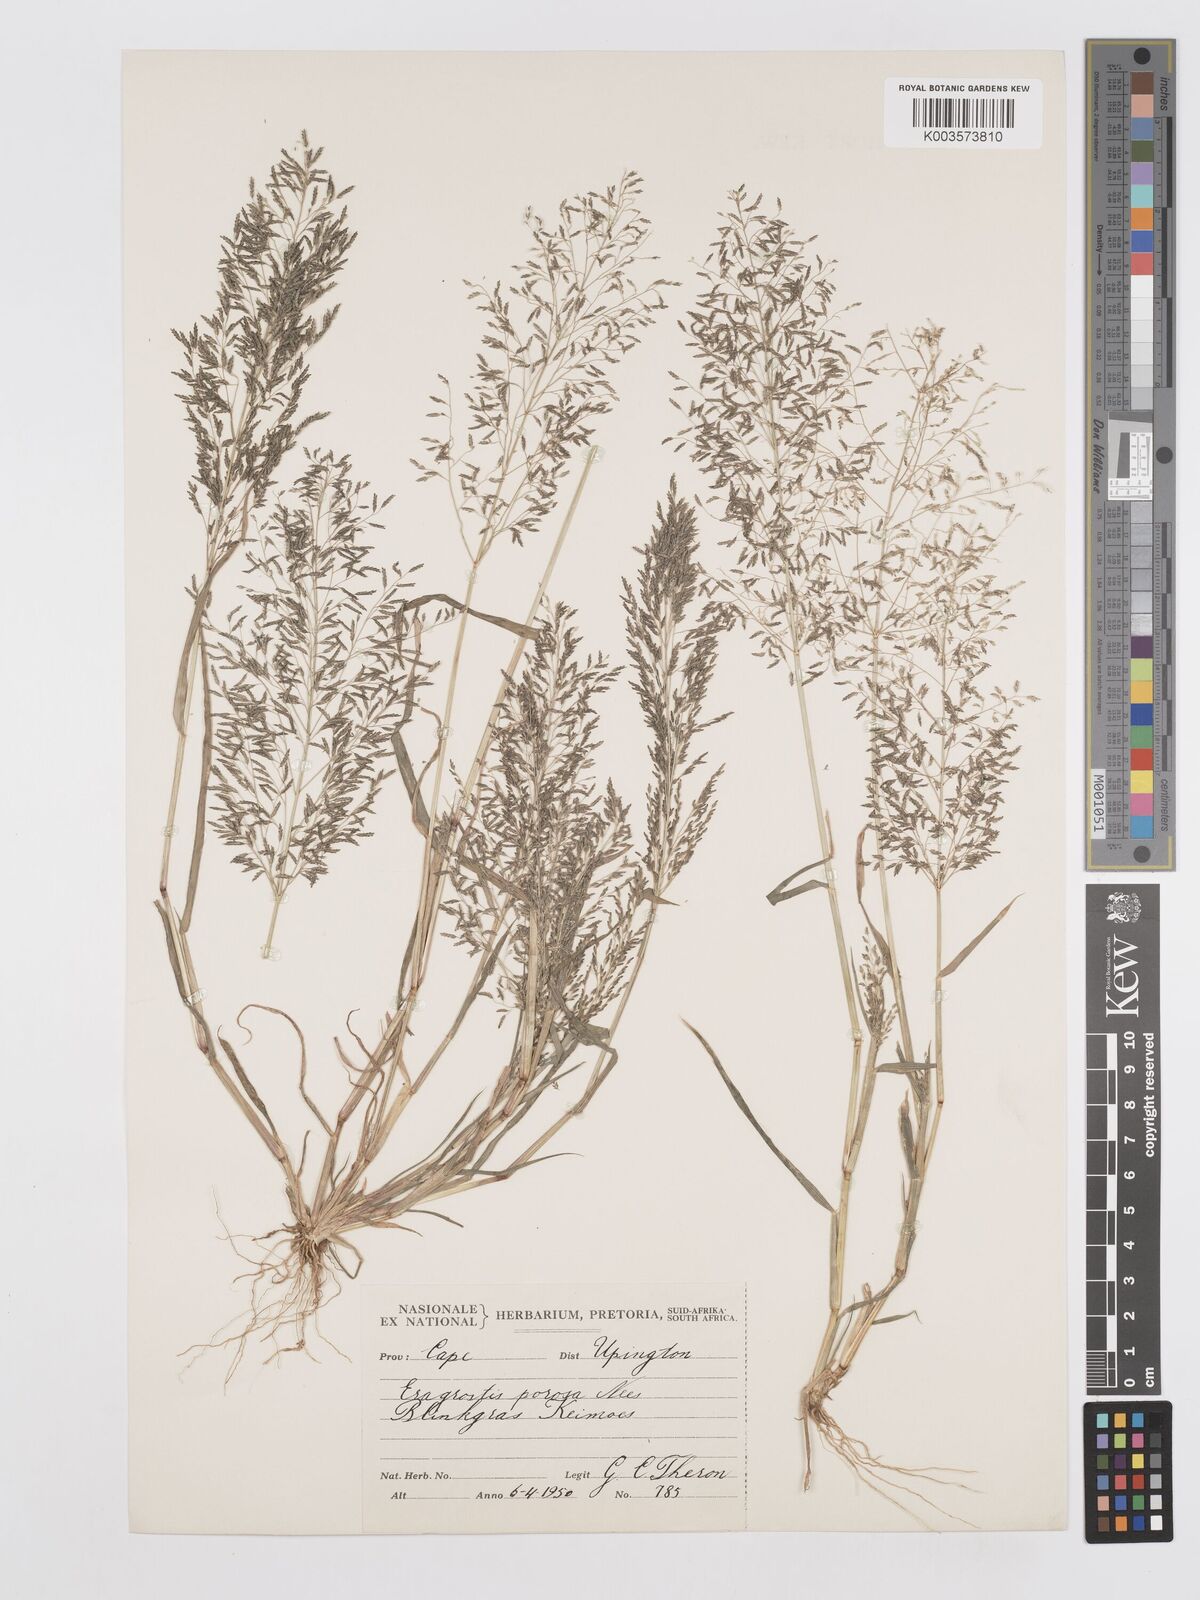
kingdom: Plantae
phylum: Tracheophyta
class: Liliopsida
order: Poales
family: Poaceae
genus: Eragrostis
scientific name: Eragrostis porosa
